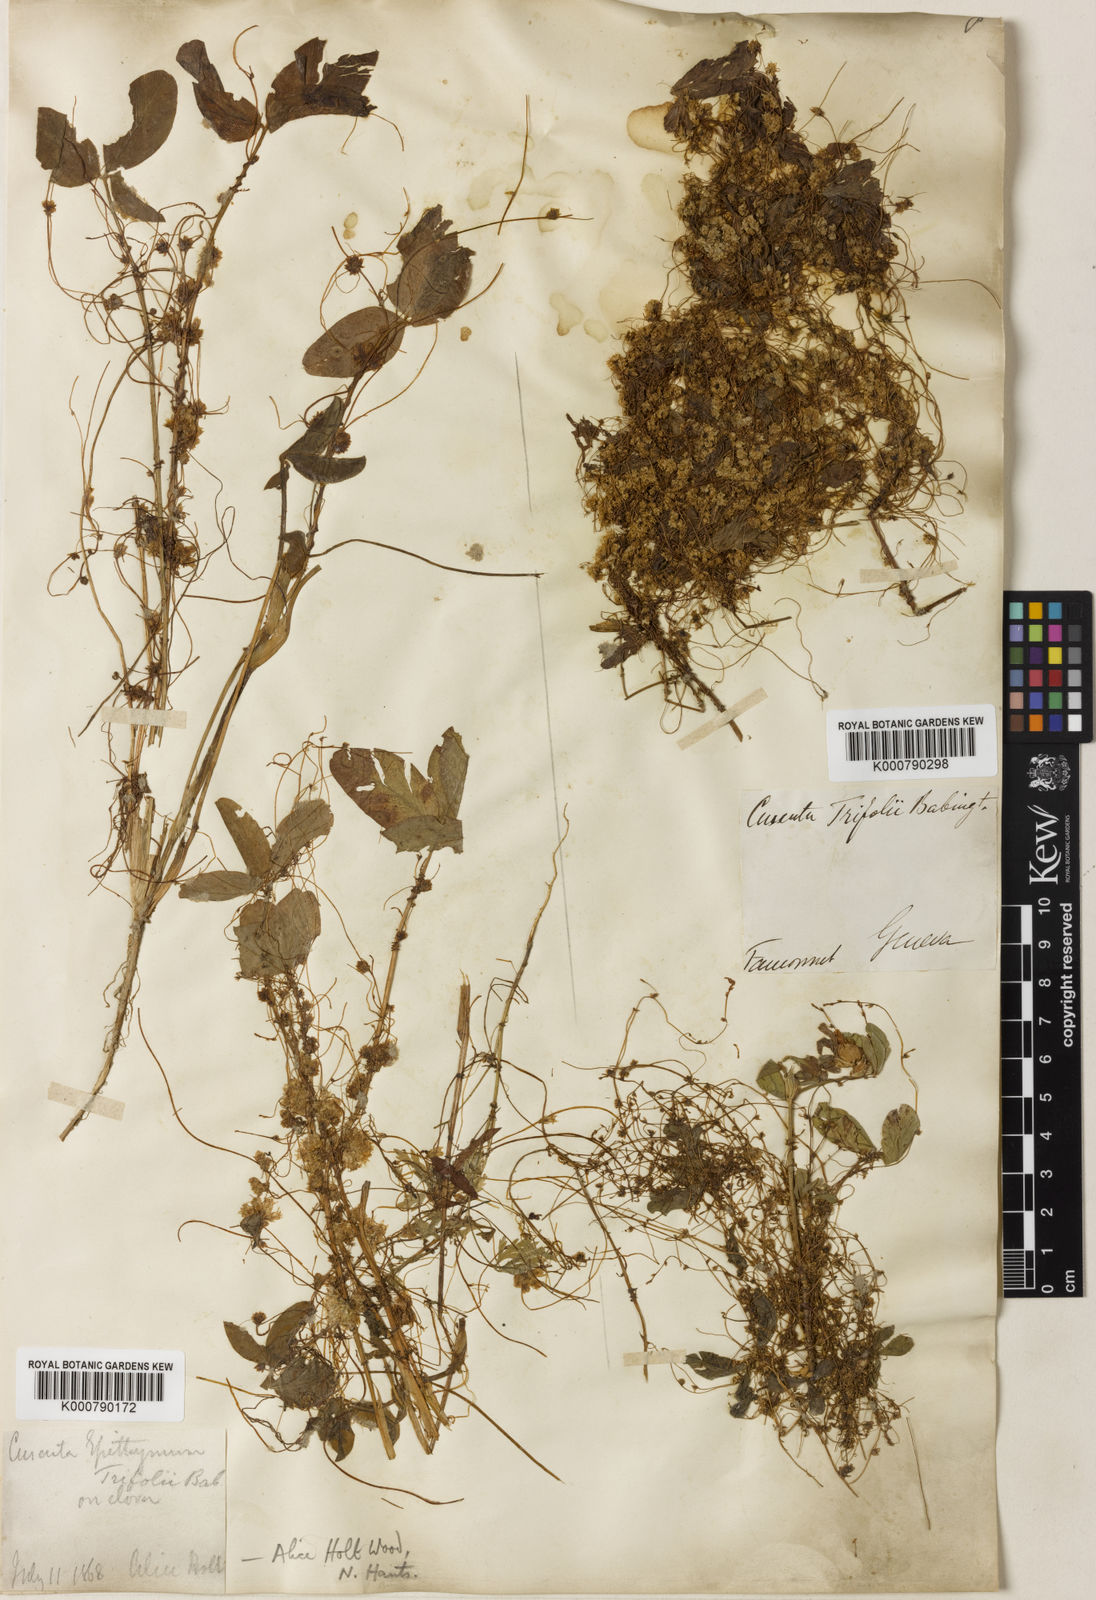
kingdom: Plantae
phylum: Tracheophyta
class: Magnoliopsida
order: Solanales
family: Convolvulaceae
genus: Cuscuta
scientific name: Cuscuta epithymum
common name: Clover dodder
